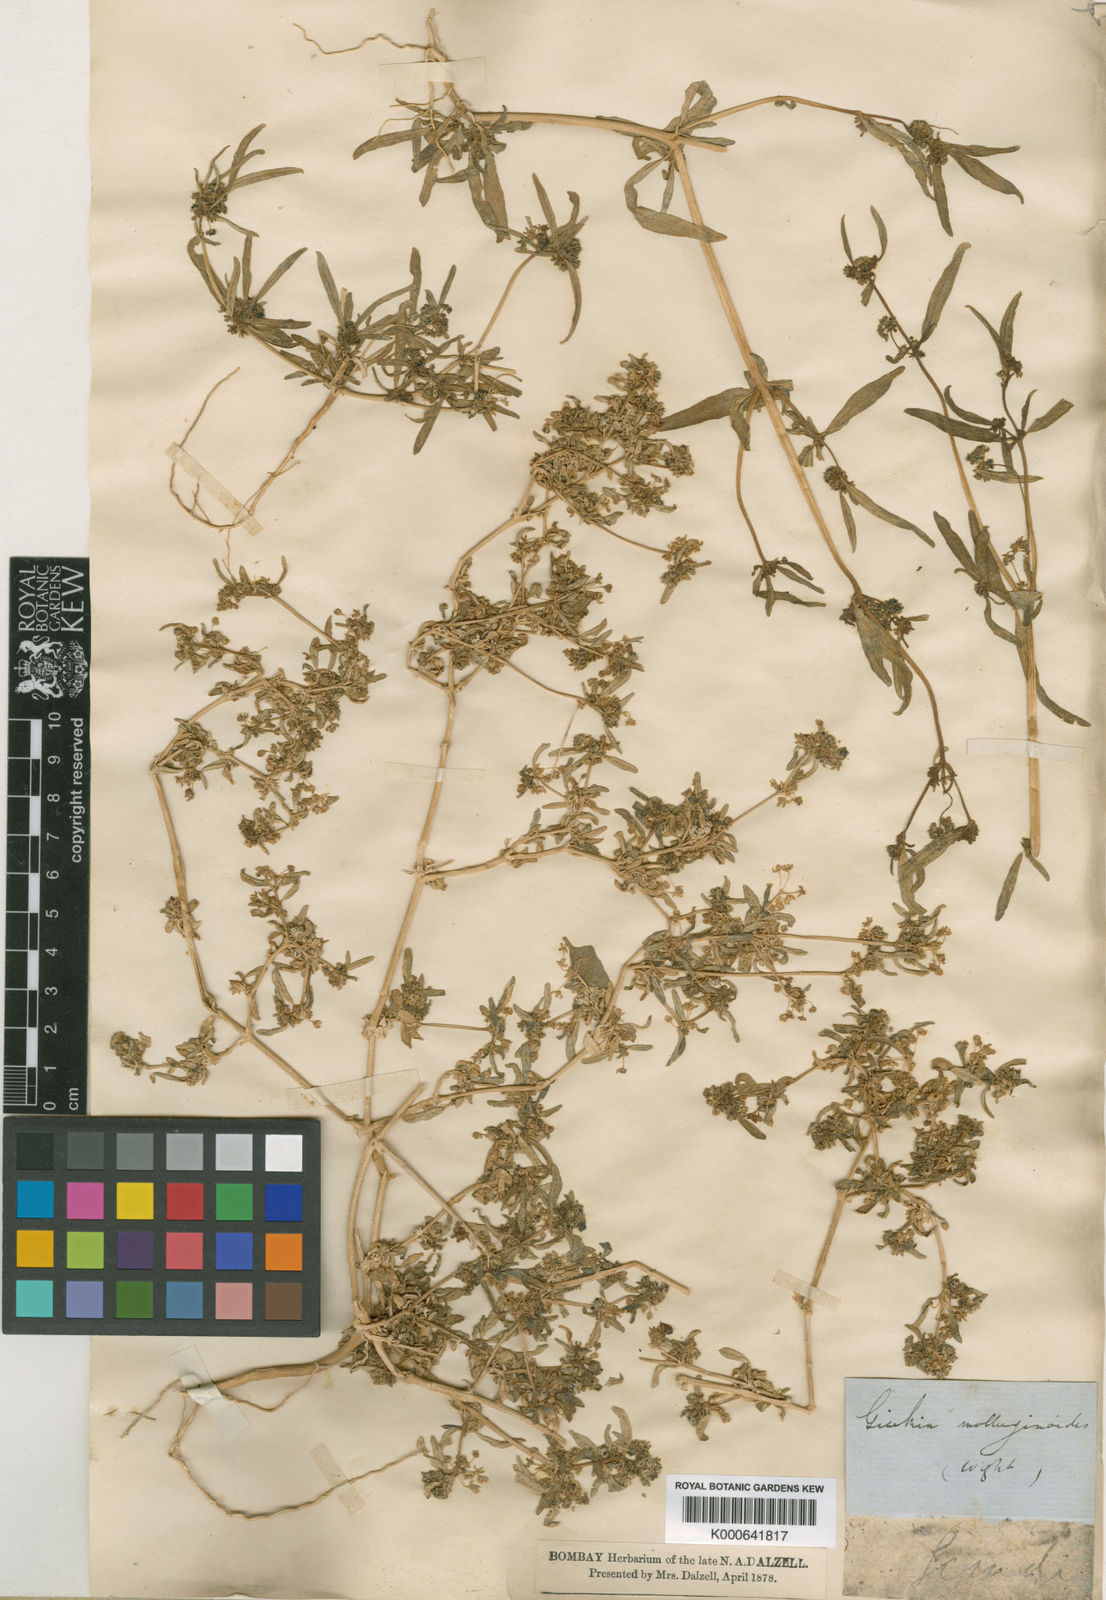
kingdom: Plantae
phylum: Tracheophyta
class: Magnoliopsida
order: Caryophyllales
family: Gisekiaceae
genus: Gisekia
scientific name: Gisekia
